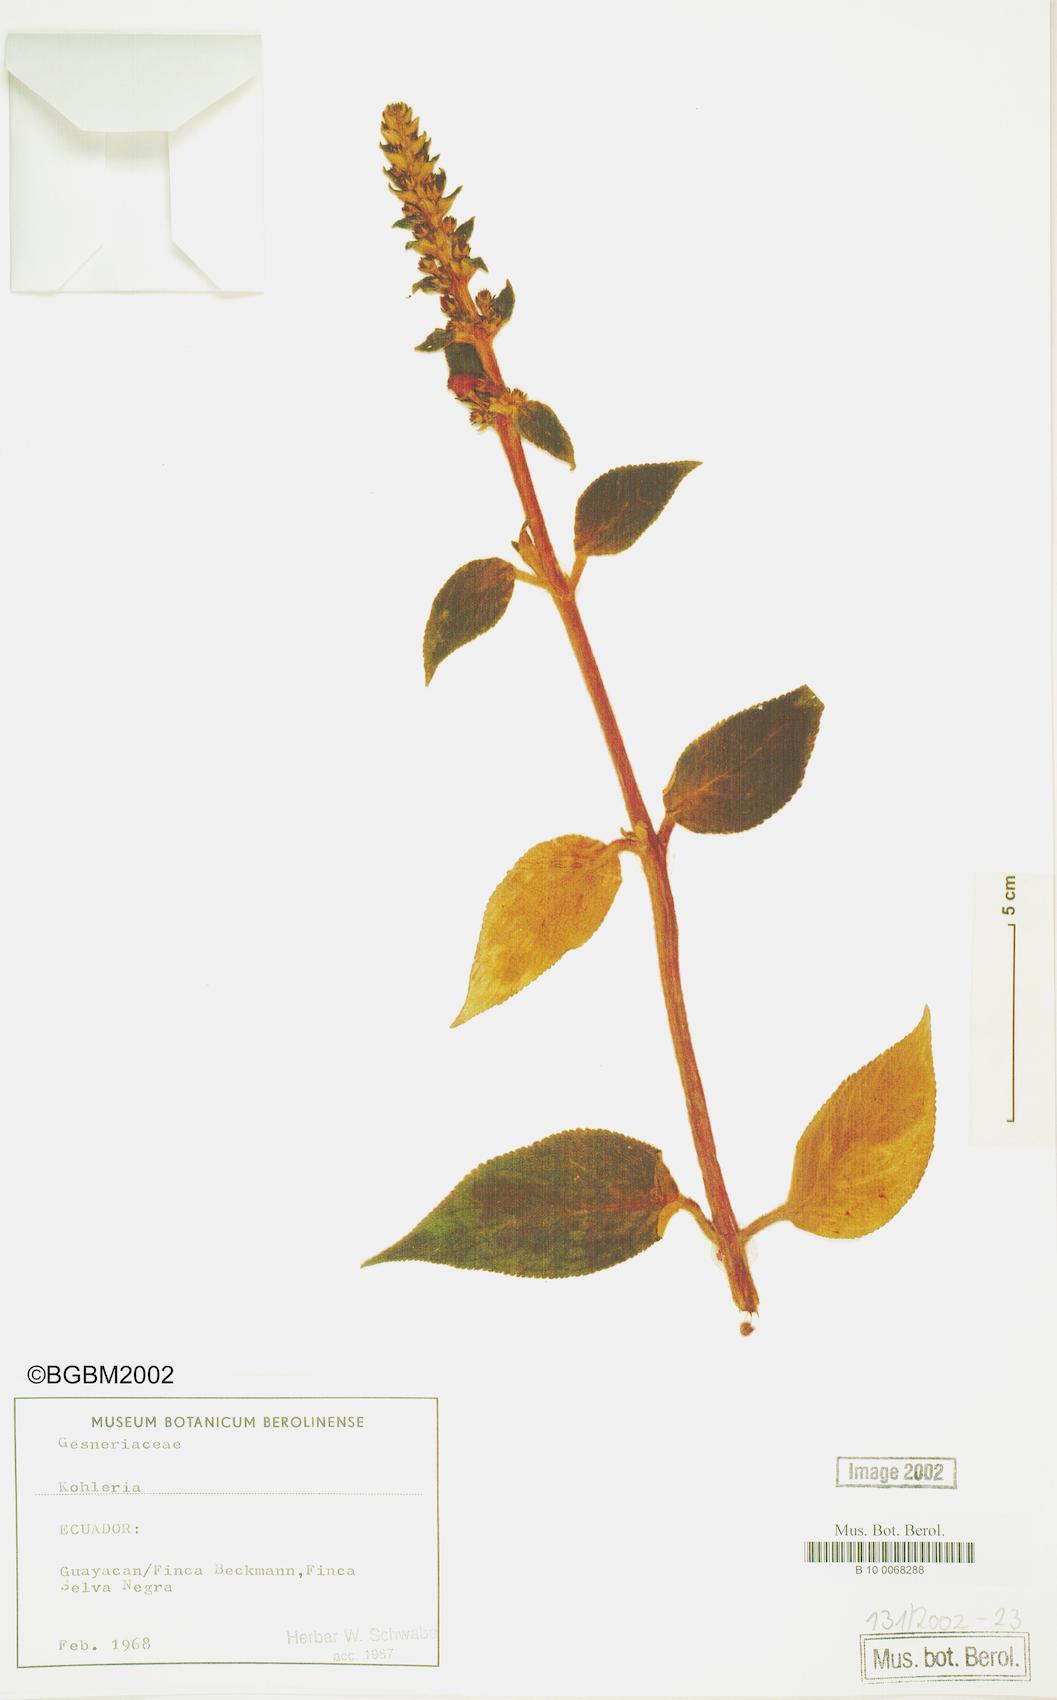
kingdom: Plantae
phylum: Tracheophyta
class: Magnoliopsida
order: Lamiales
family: Gesneriaceae
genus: Kohleria
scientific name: Kohleria
